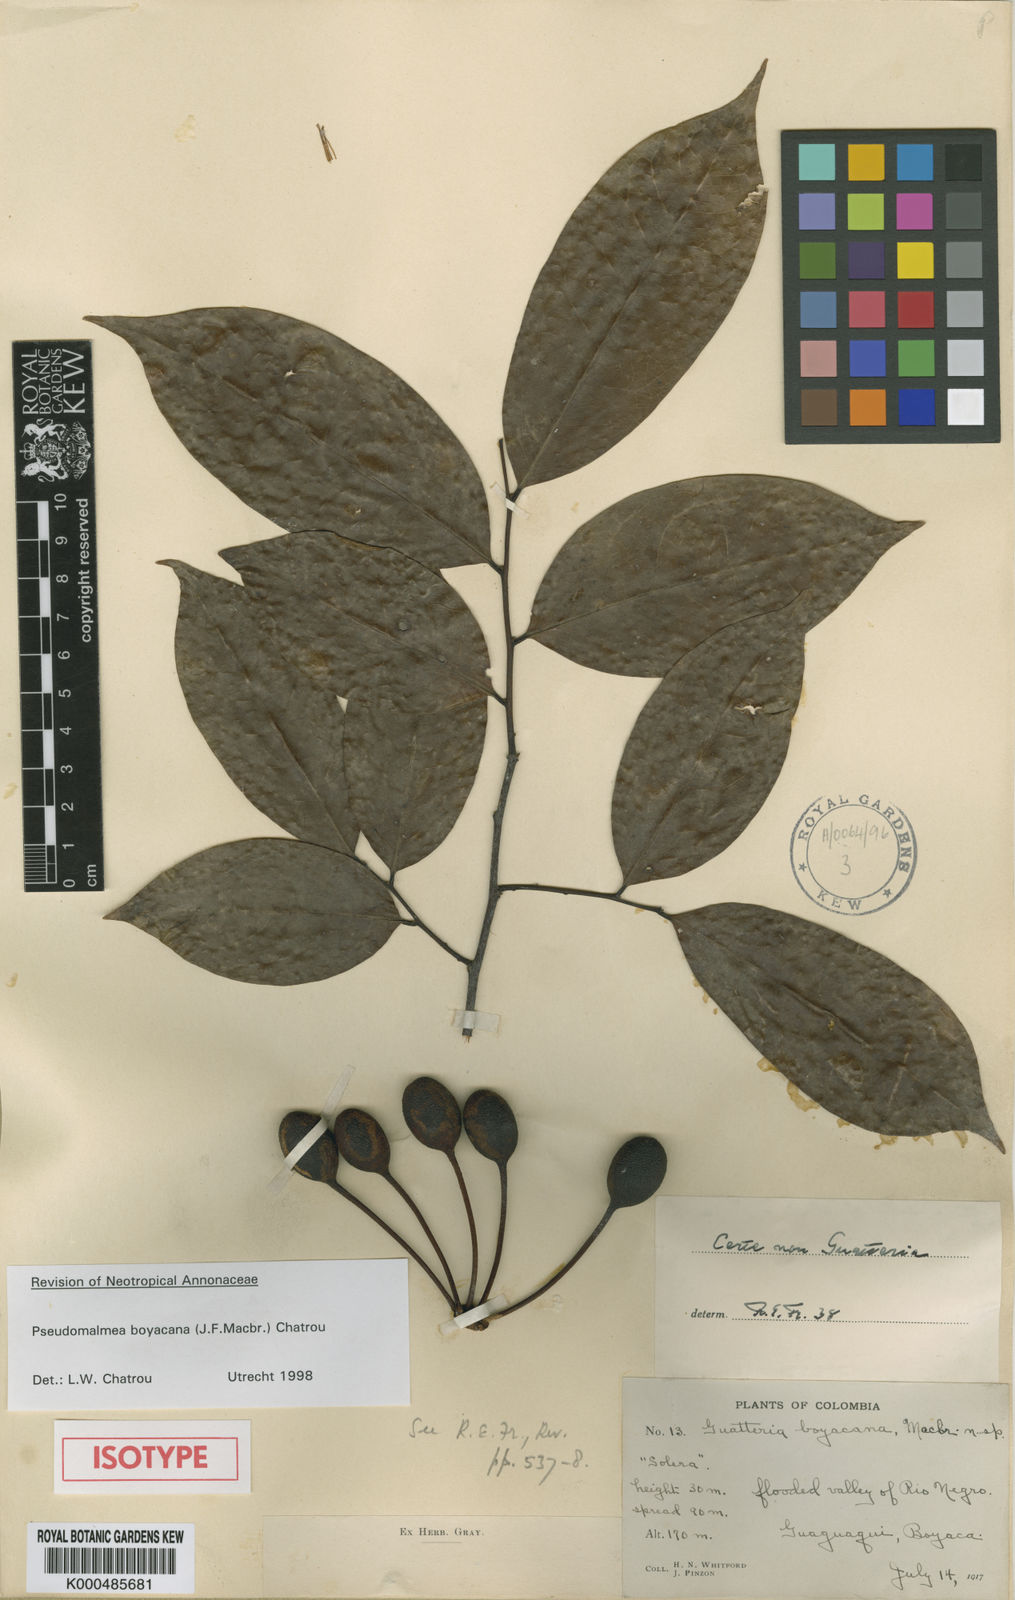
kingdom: Plantae
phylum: Tracheophyta
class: Magnoliopsida
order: Magnoliales
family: Annonaceae
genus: Pseudomalmea
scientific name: Pseudomalmea boyacana
